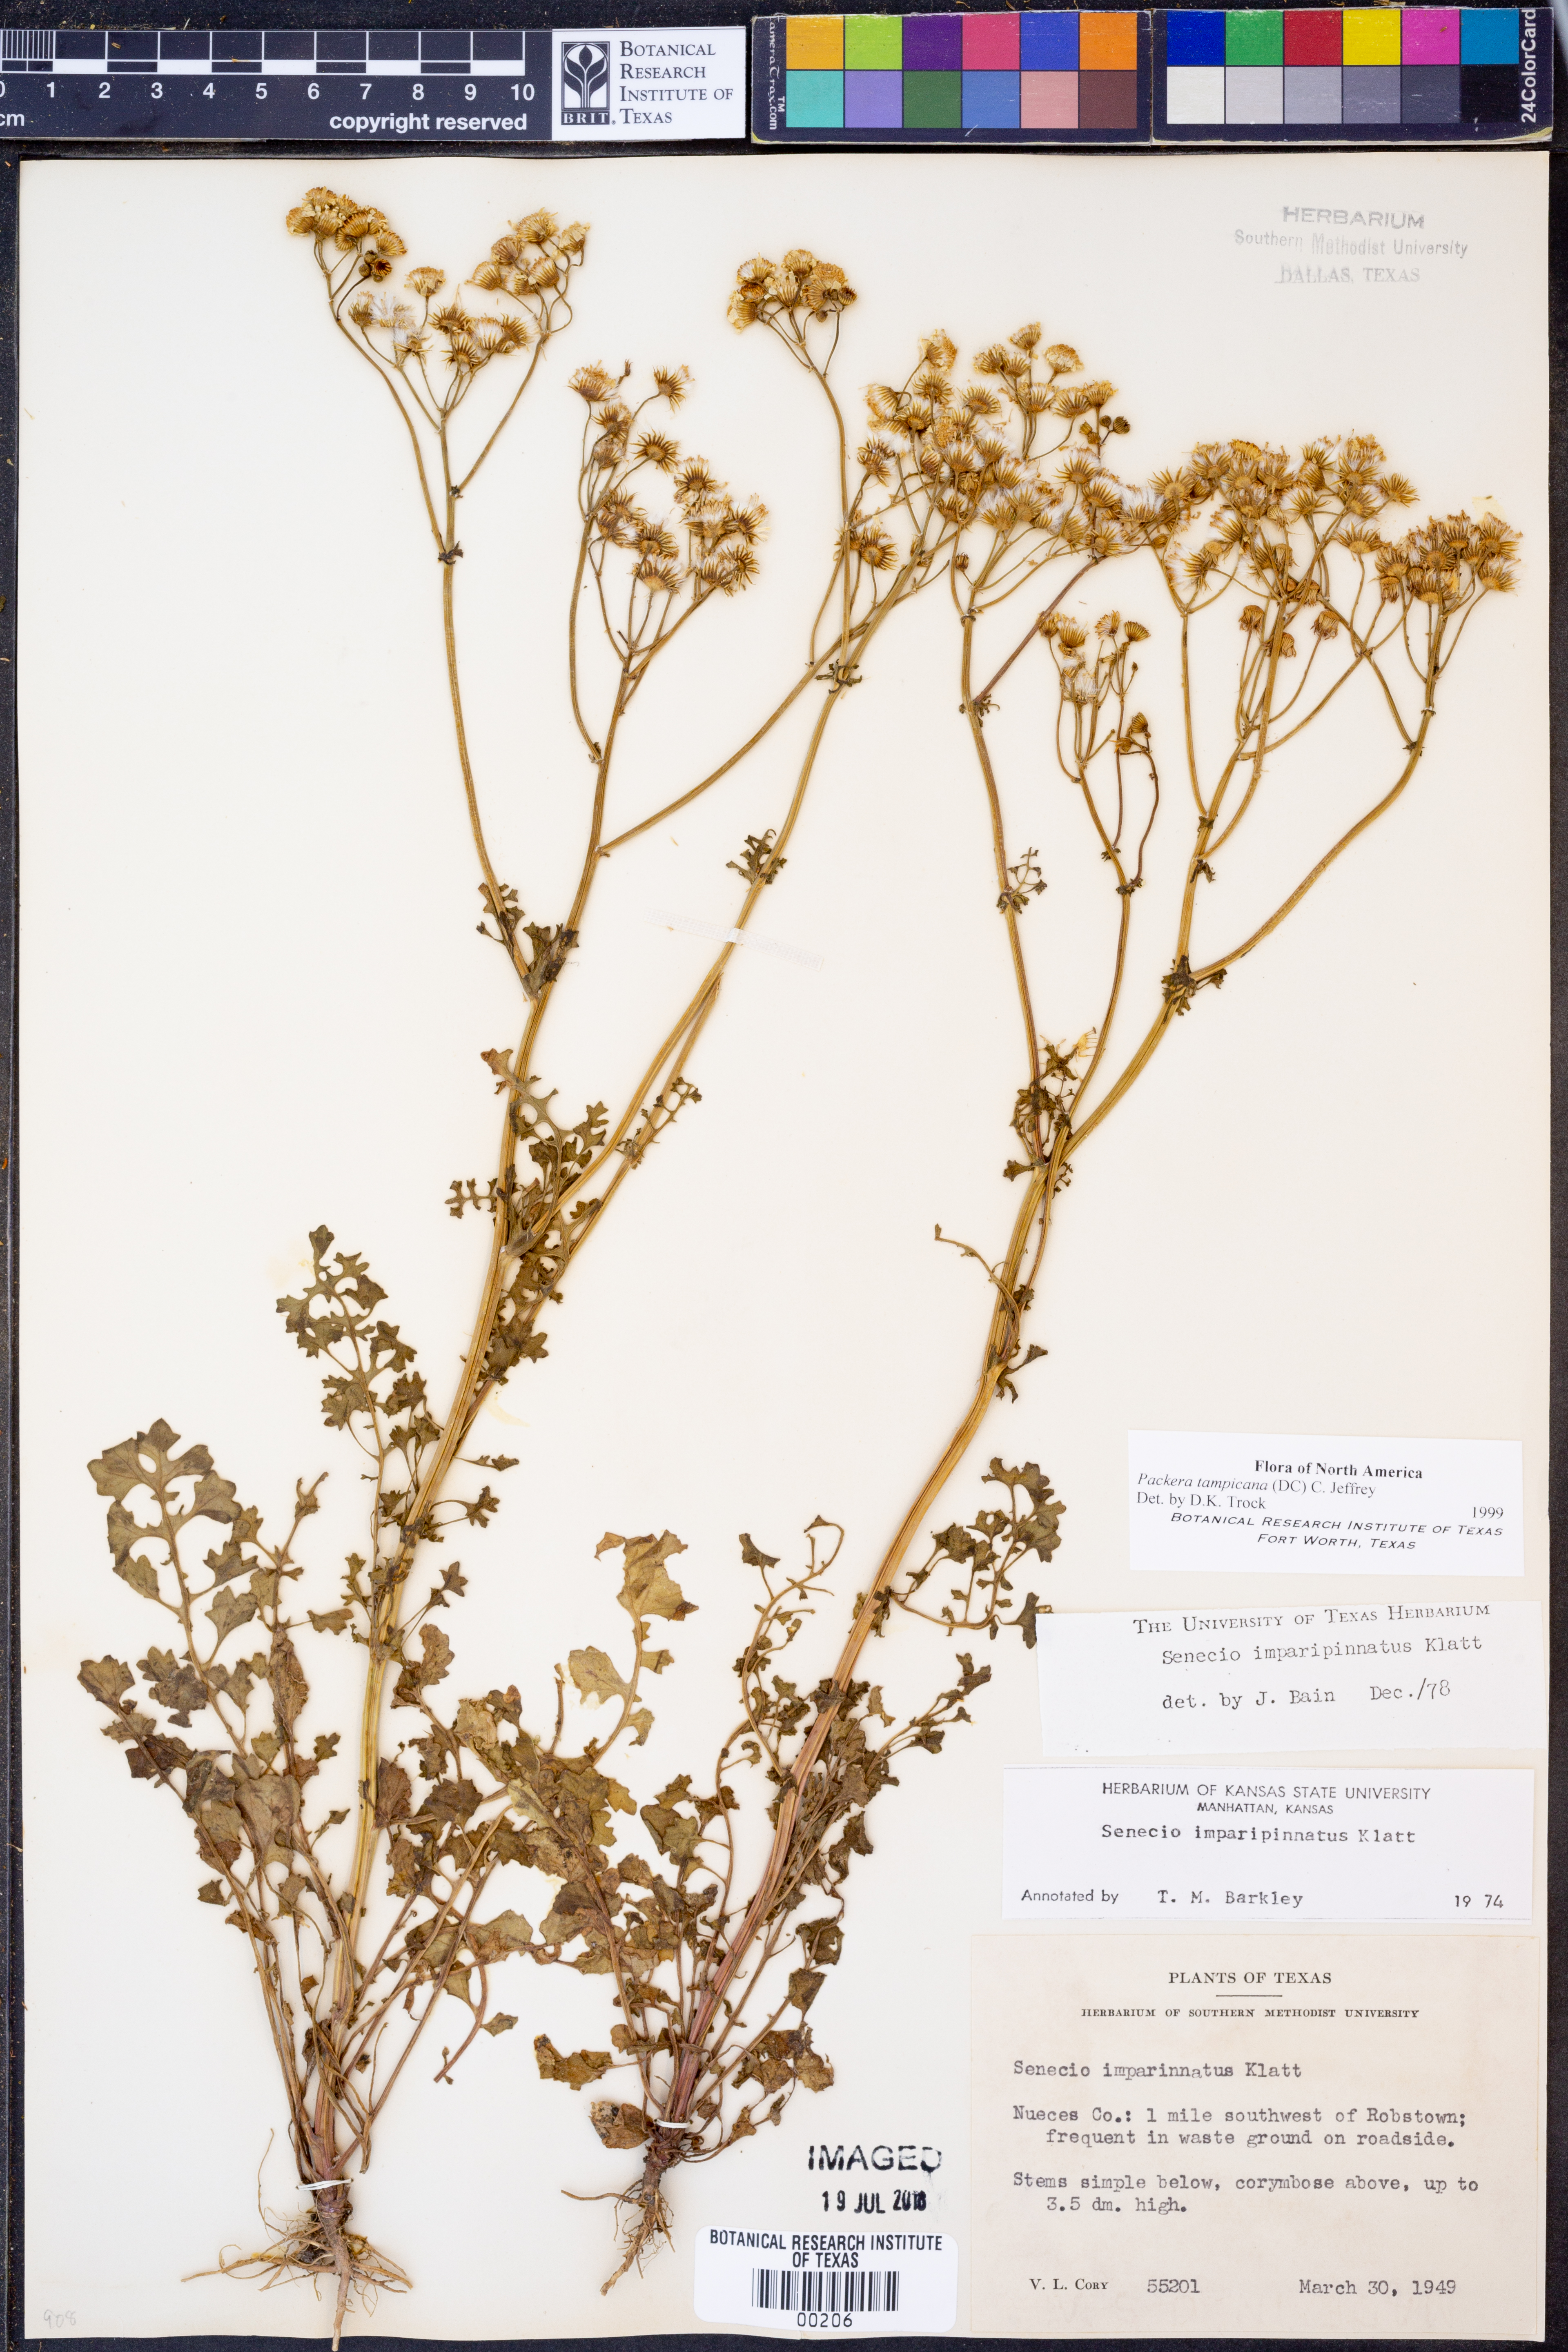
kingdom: Plantae
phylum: Tracheophyta
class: Magnoliopsida
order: Asterales
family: Asteraceae
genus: Packera
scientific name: Packera tampicana
